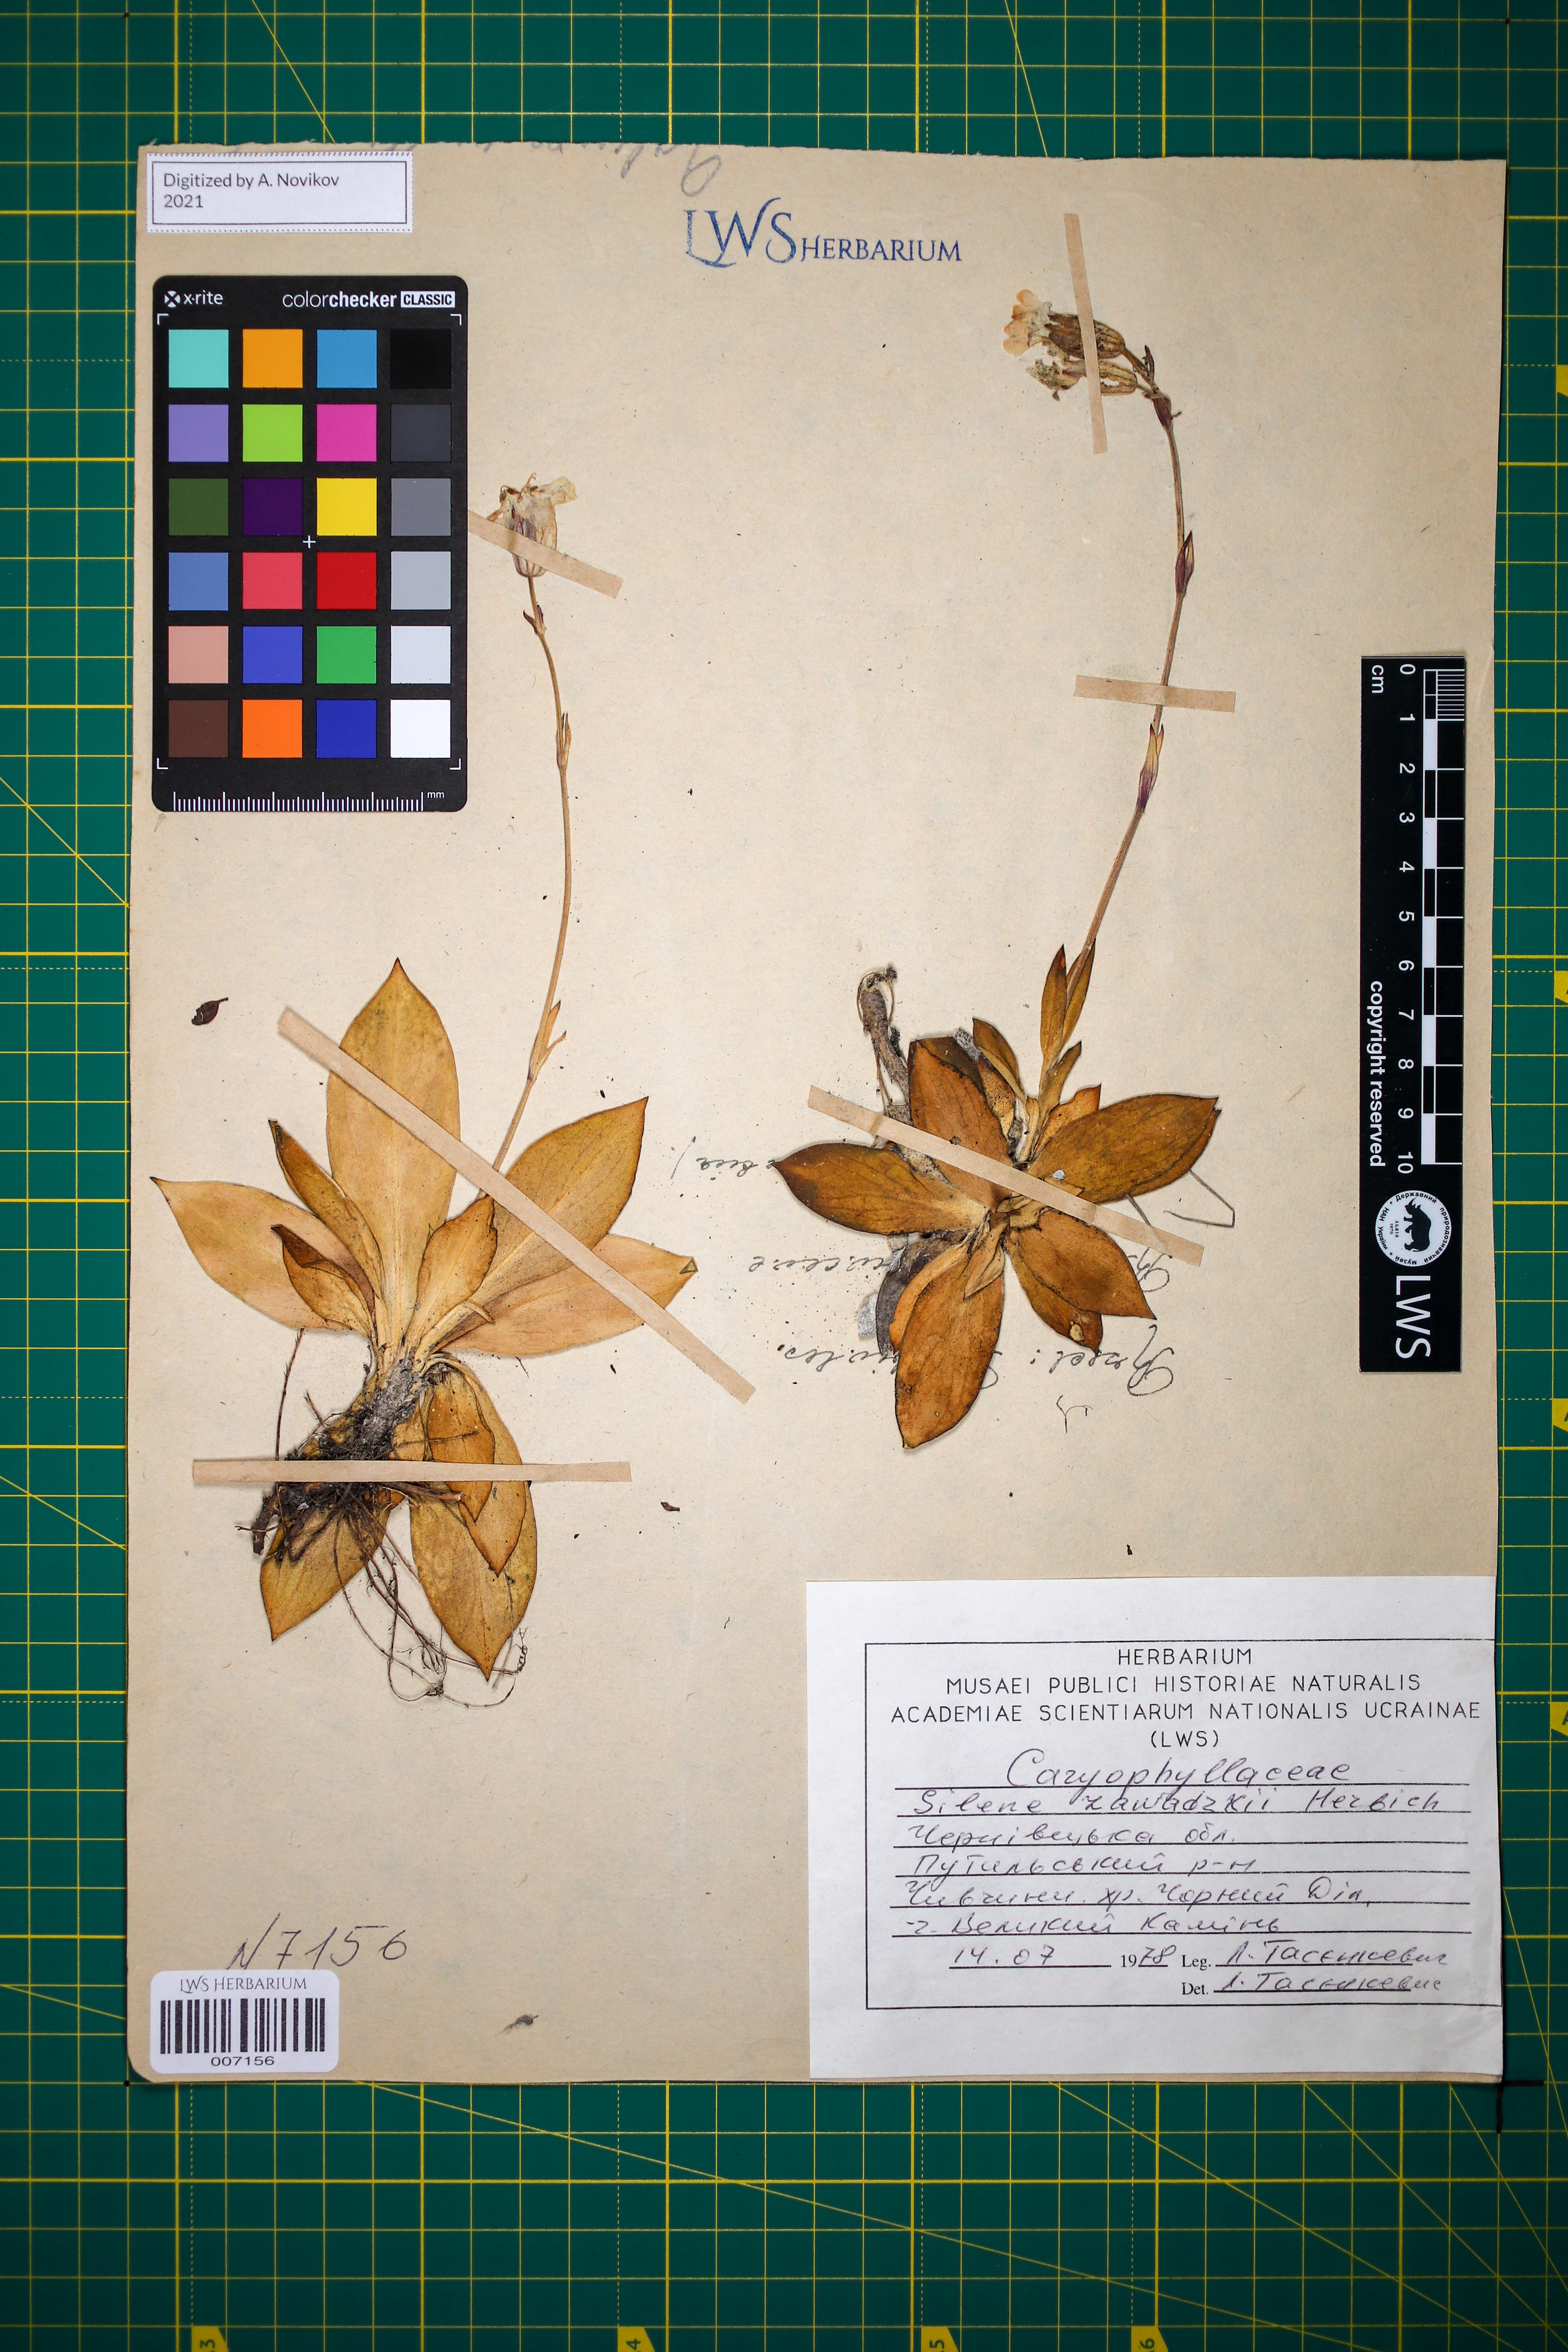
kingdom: Plantae
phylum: Tracheophyta
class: Magnoliopsida
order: Caryophyllales
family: Caryophyllaceae
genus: Silene
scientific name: Silene zawadzkii
